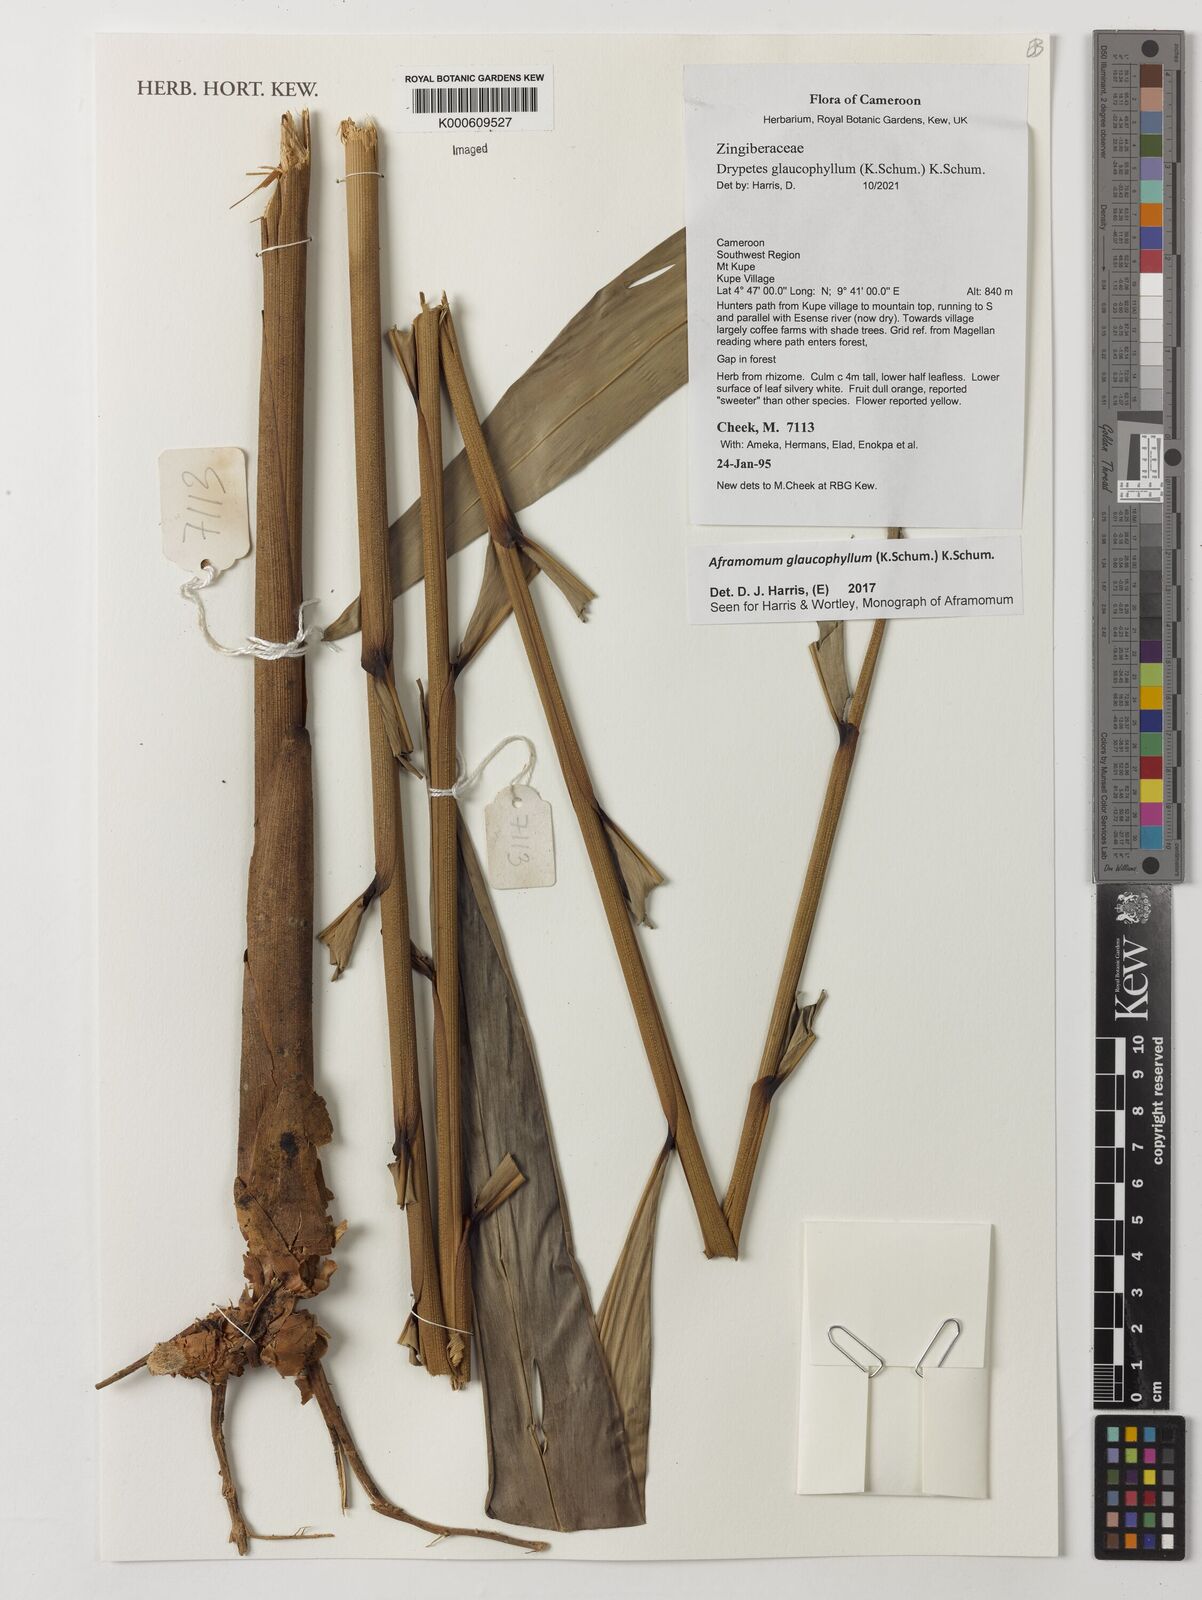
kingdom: Plantae
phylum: Tracheophyta
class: Liliopsida
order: Zingiberales
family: Zingiberaceae
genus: Aframomum
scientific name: Aframomum glaucophyllum
